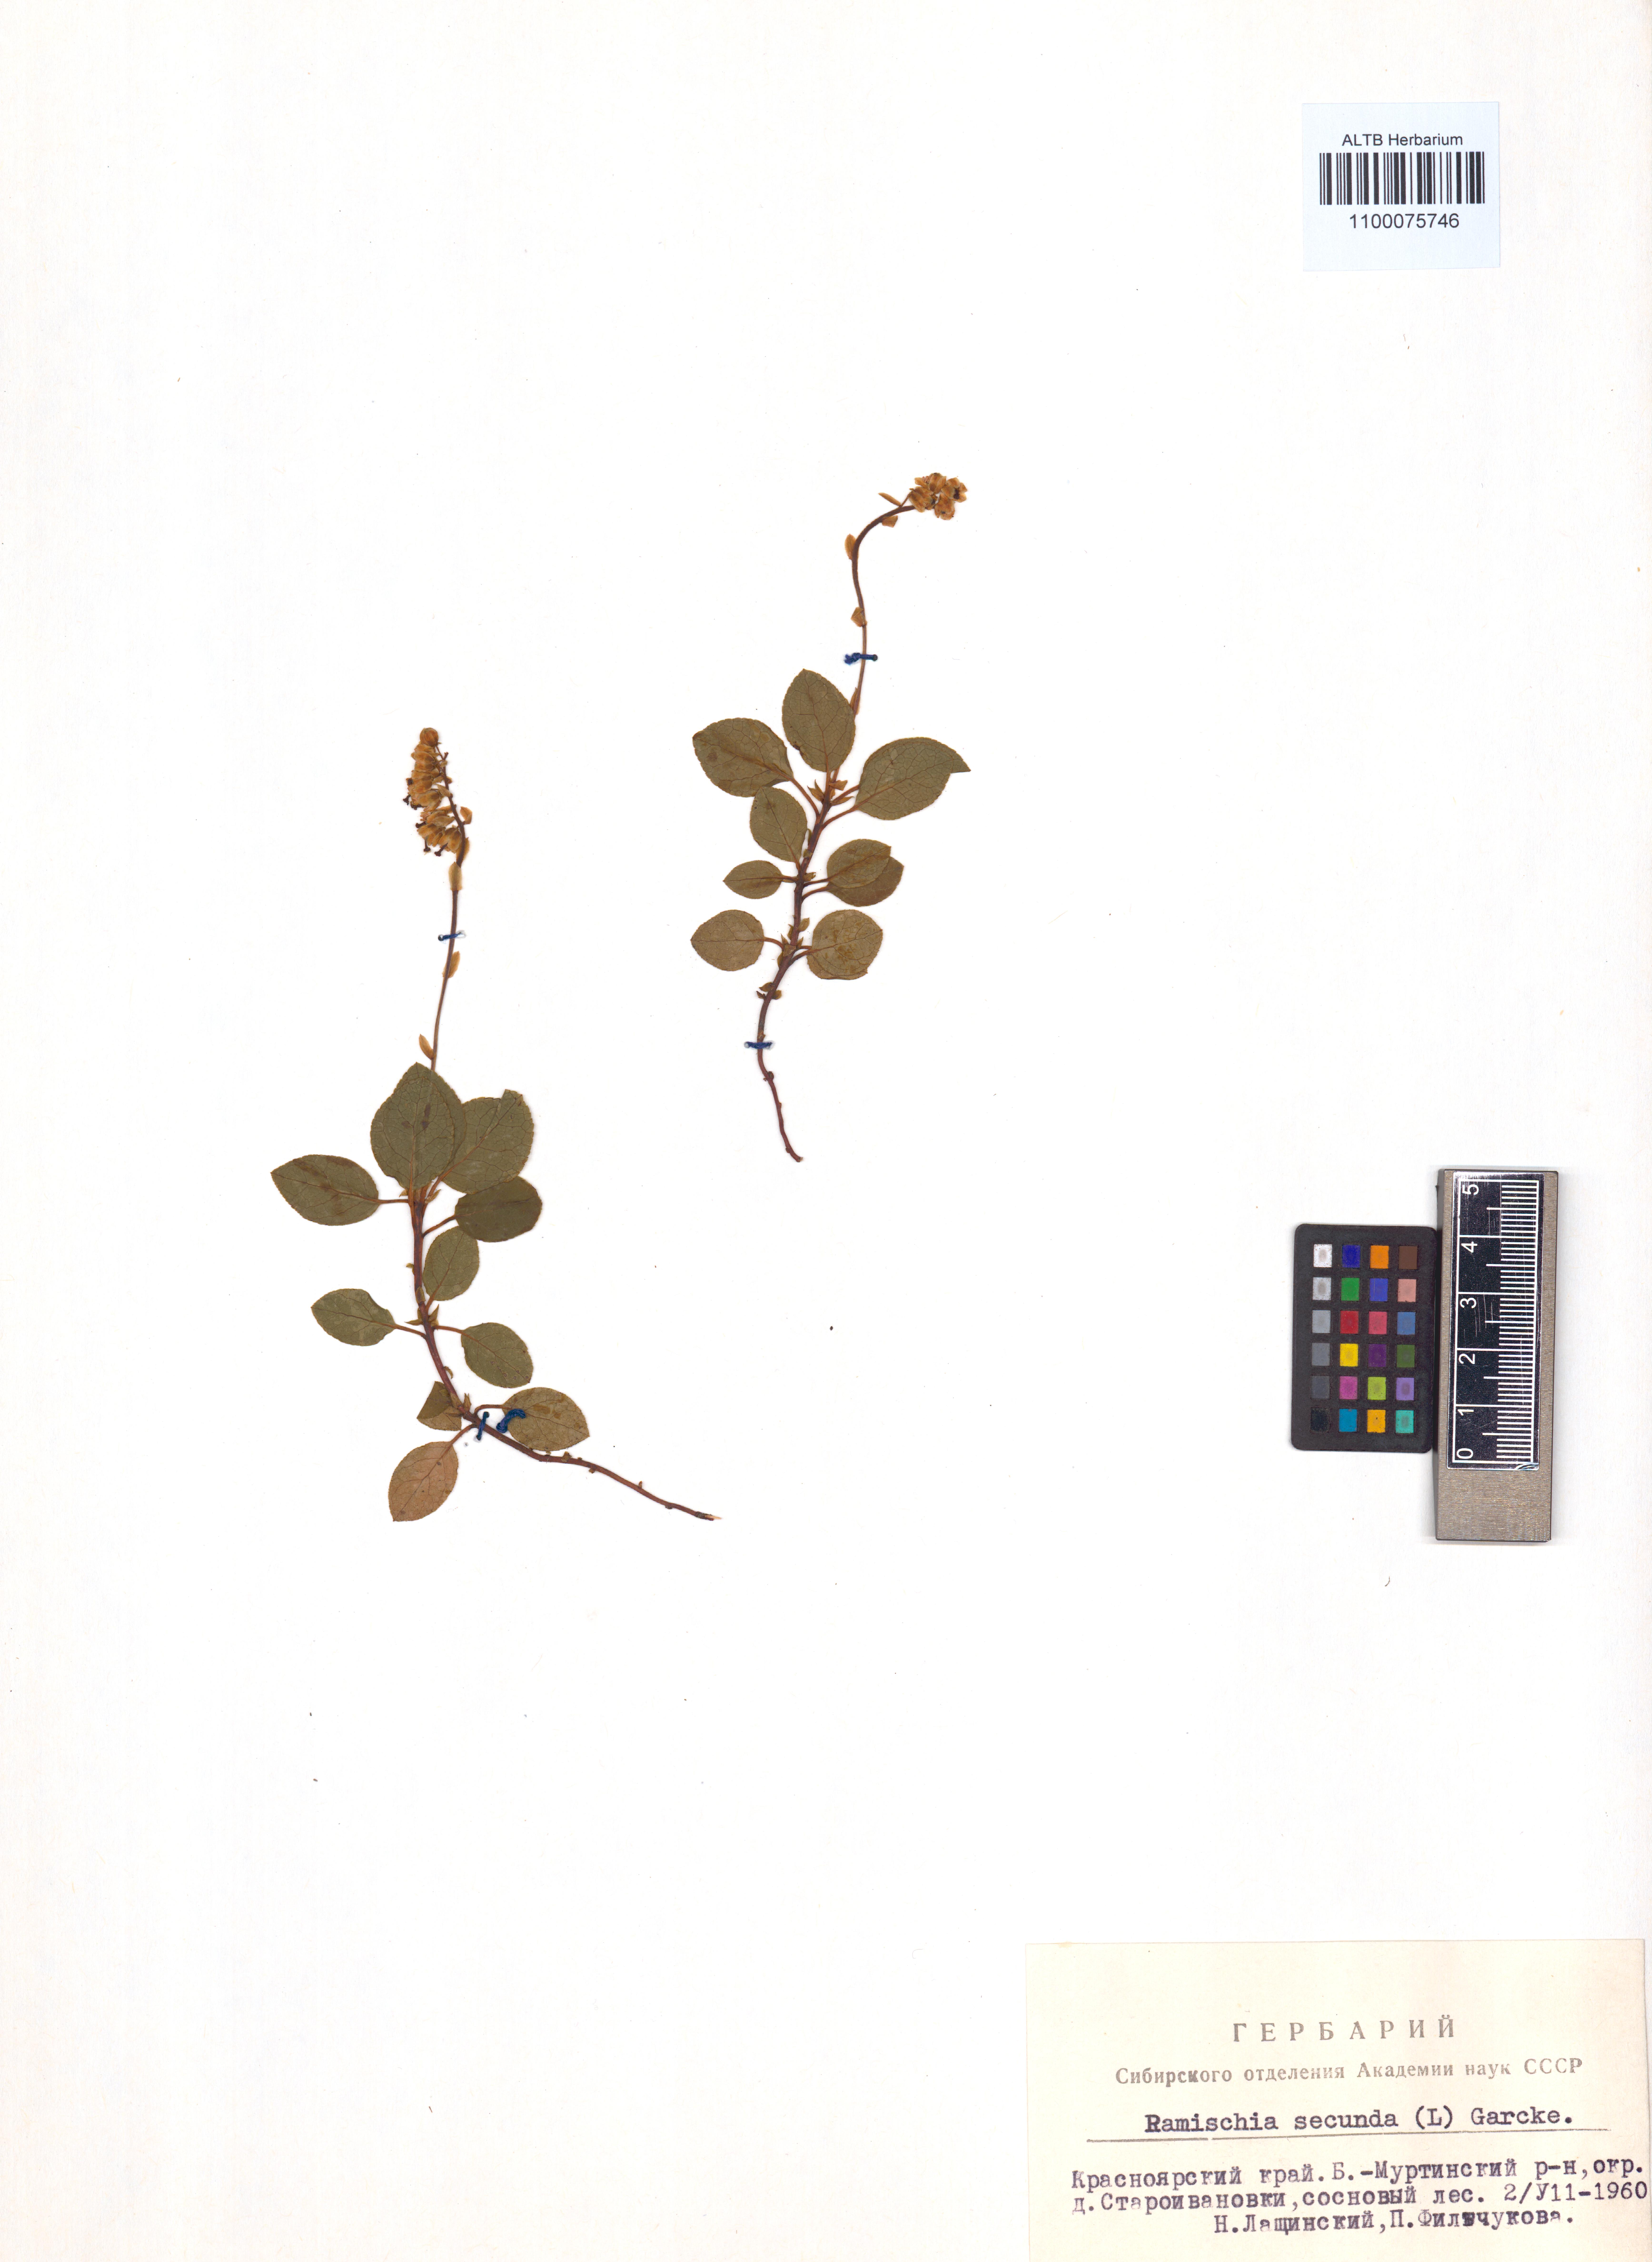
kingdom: Plantae
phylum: Tracheophyta
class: Magnoliopsida
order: Ericales
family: Ericaceae
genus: Orthilia
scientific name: Orthilia secunda
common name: One-sided orthilia
